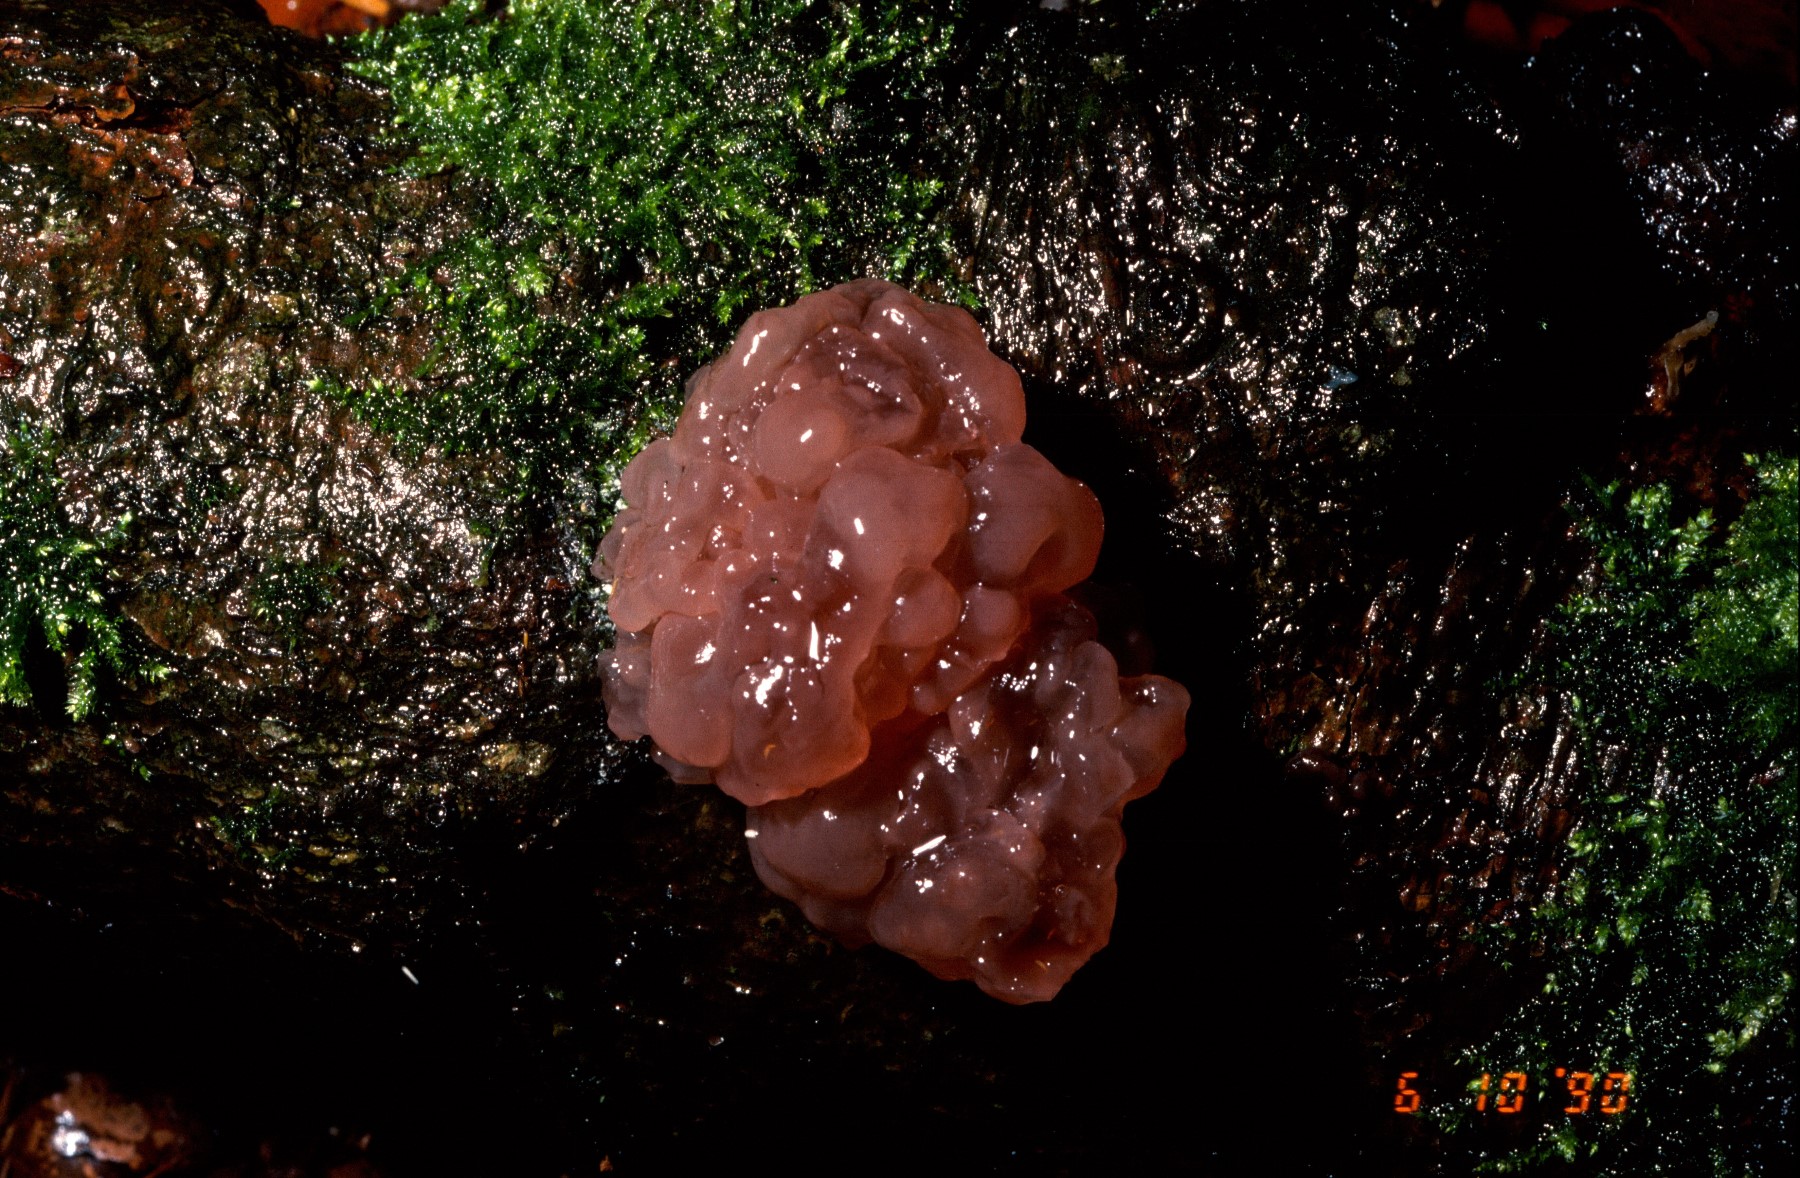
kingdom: Fungi
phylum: Ascomycota
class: Leotiomycetes
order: Helotiales
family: Gelatinodiscaceae
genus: Ascotremella
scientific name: Ascotremella faginea
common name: hjerne-bævreskive
